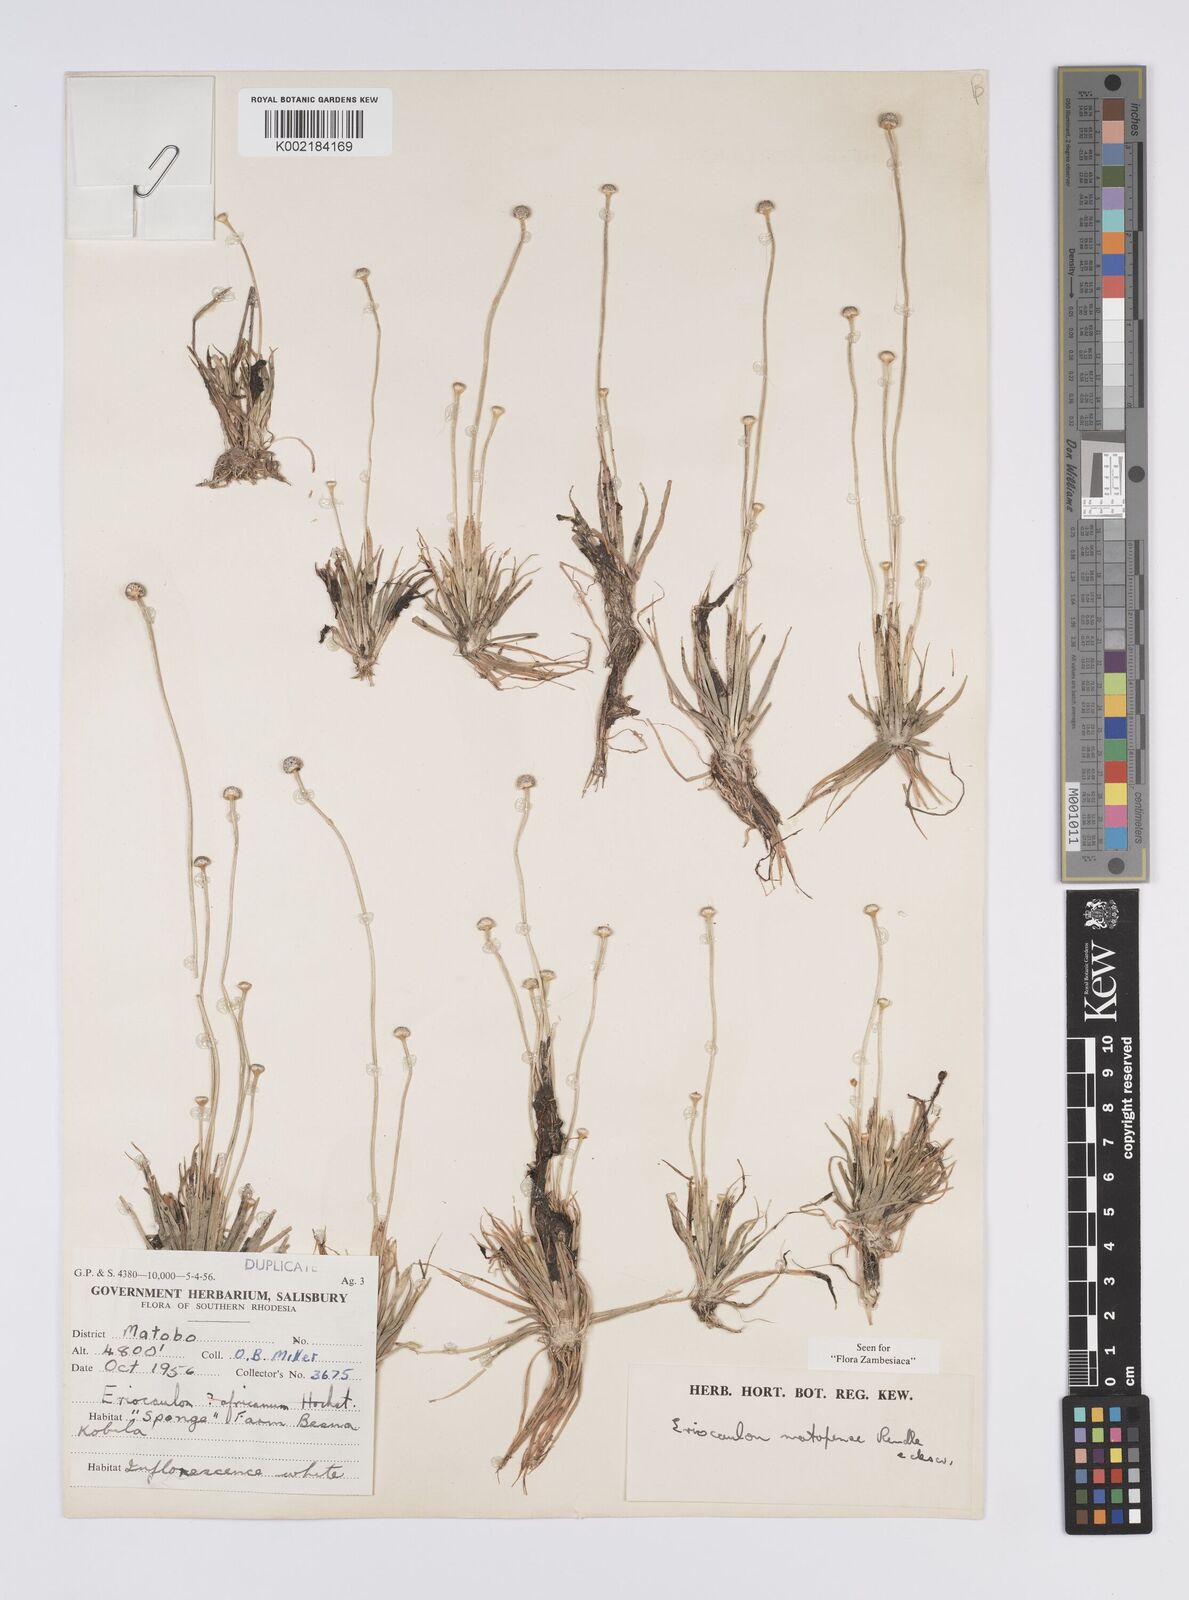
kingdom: Plantae
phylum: Tracheophyta
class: Liliopsida
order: Poales
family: Eriocaulaceae
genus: Eriocaulon
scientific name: Eriocaulon matopense
